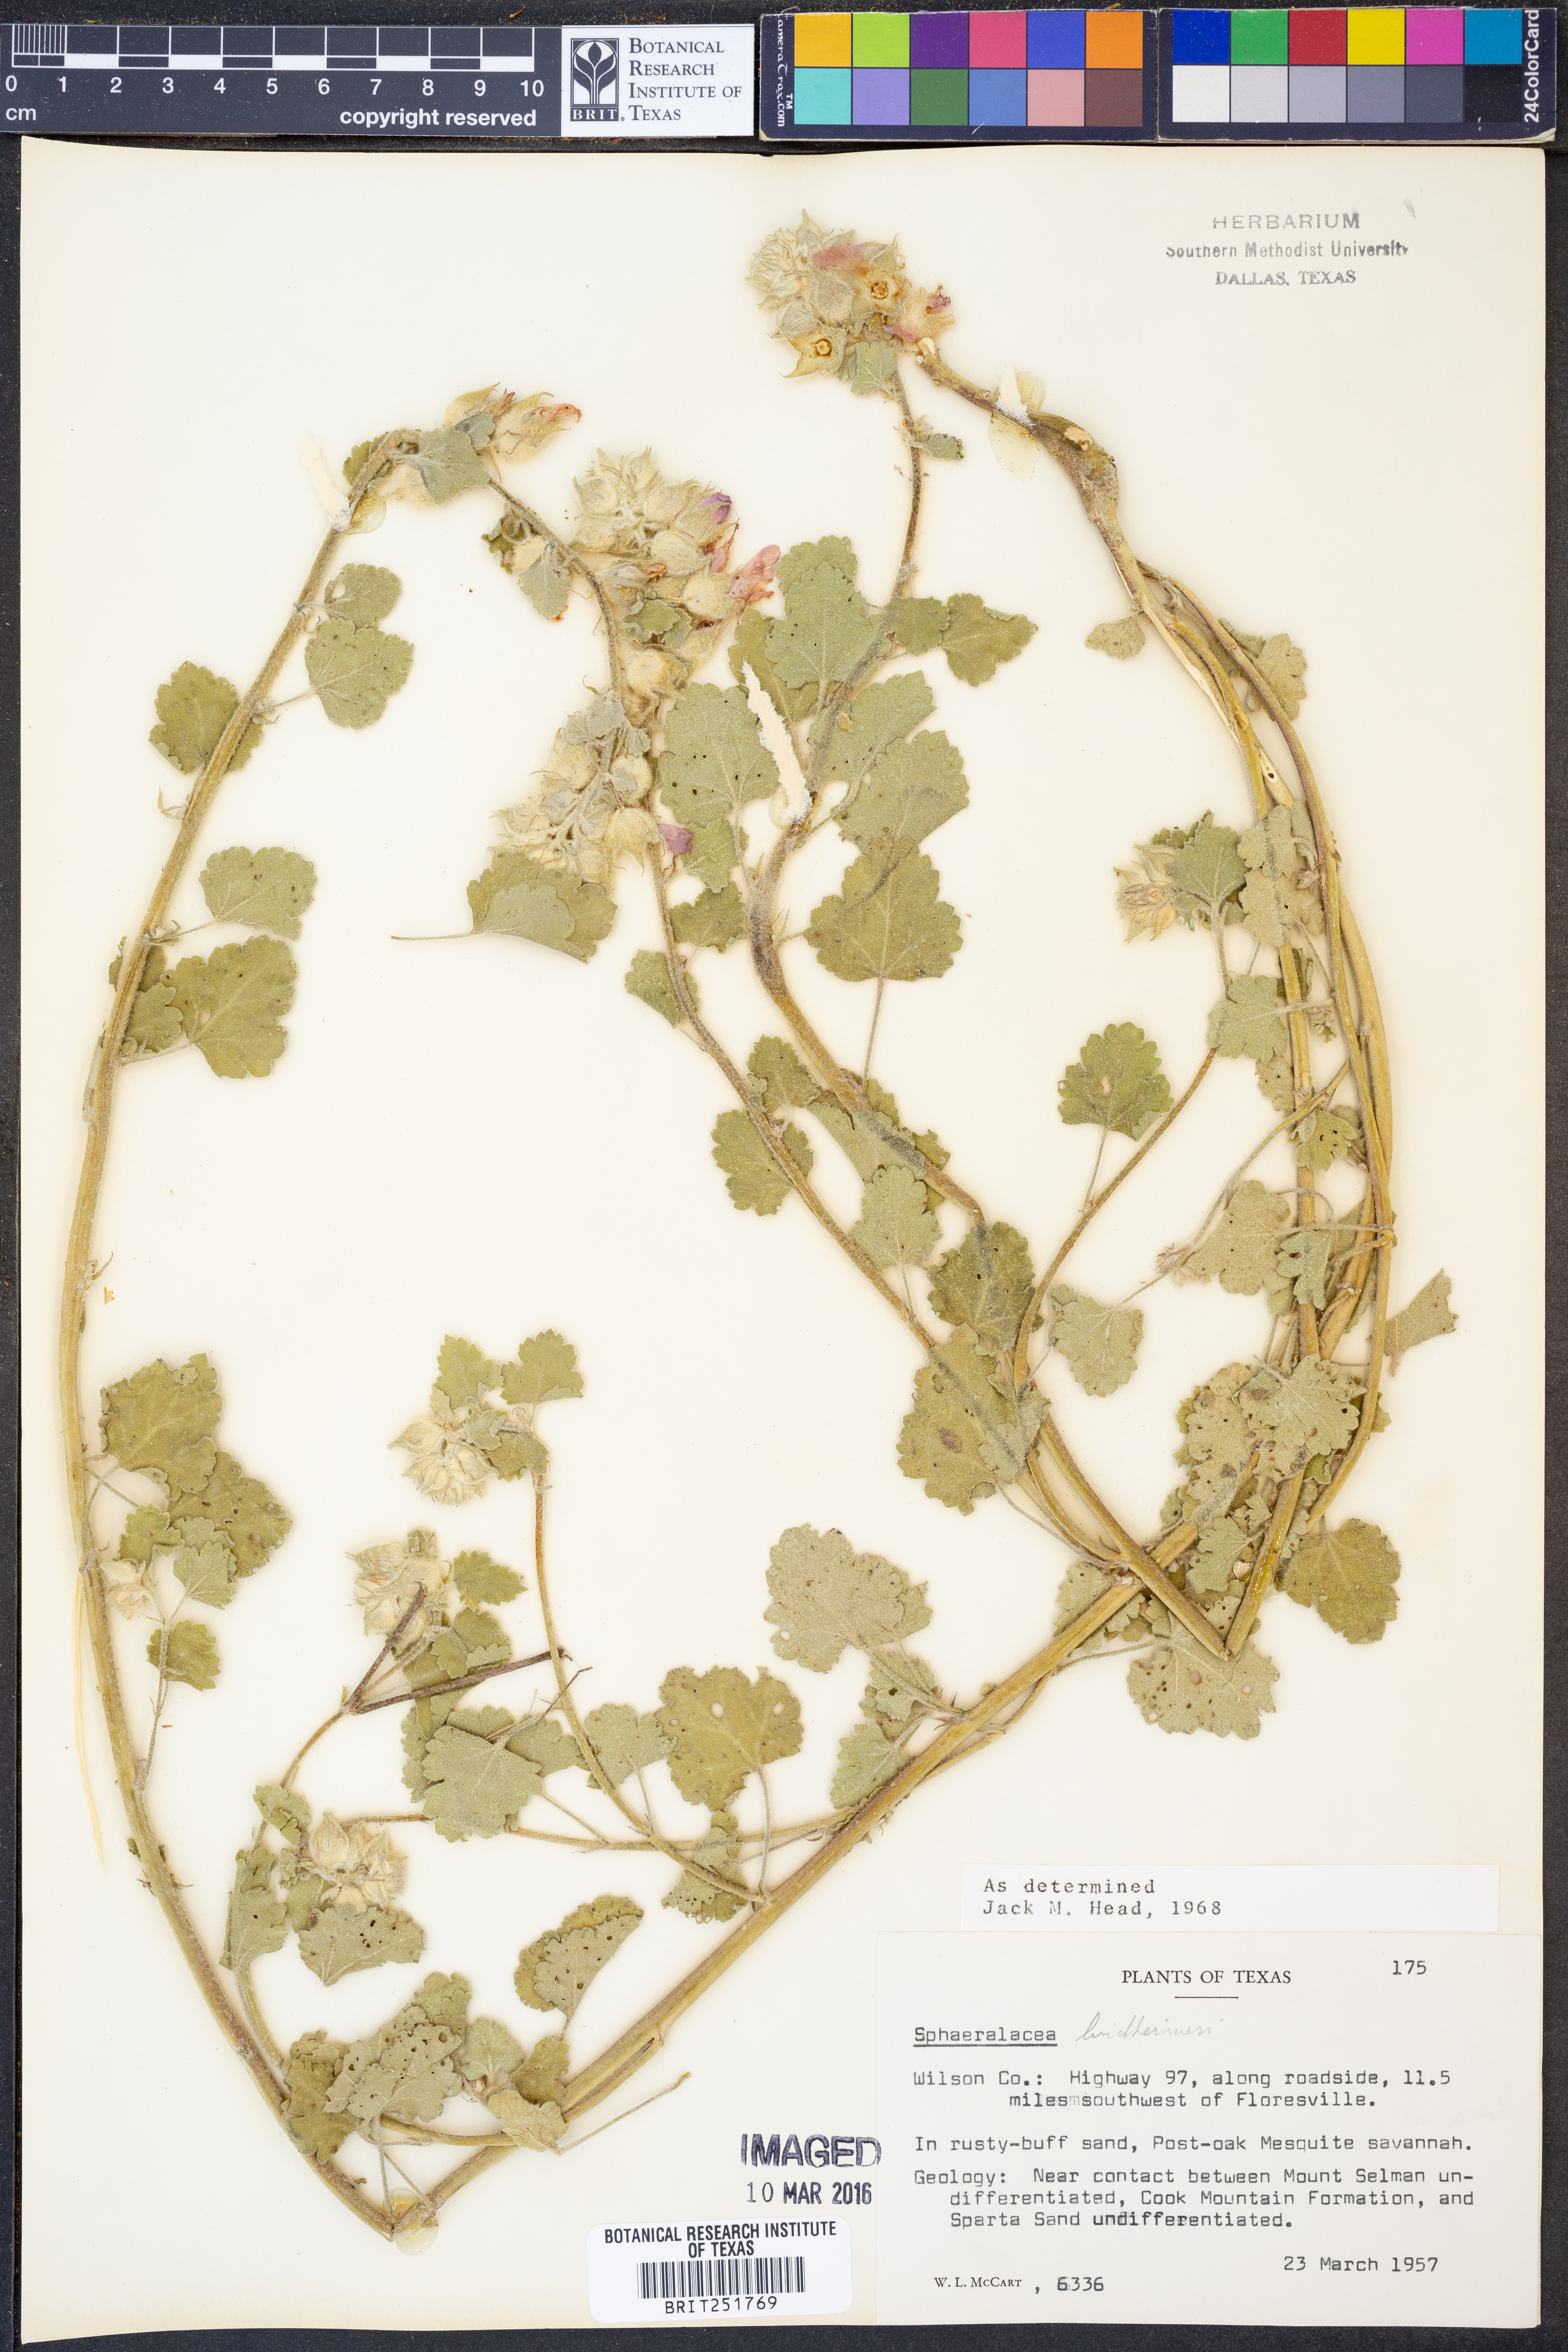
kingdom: Plantae
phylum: Tracheophyta
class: Magnoliopsida
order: Malvales
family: Malvaceae
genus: Sphaeralcea
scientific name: Sphaeralcea lindheimeri
